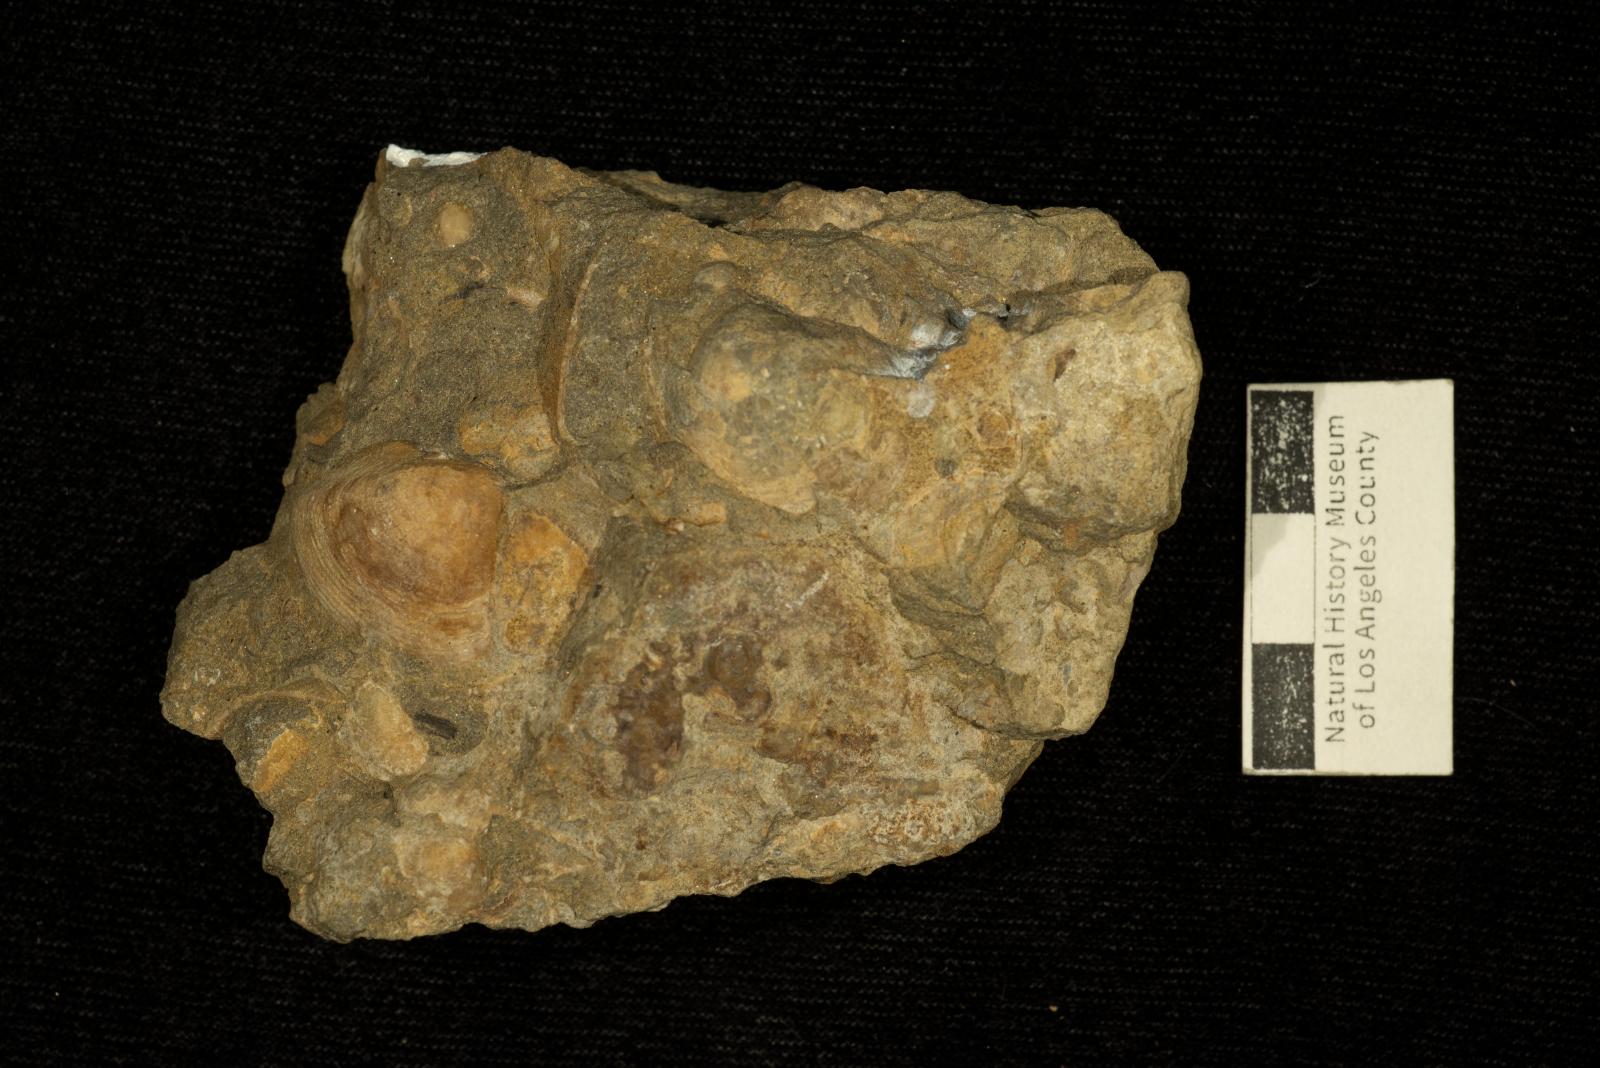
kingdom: Animalia
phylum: Mollusca
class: Bivalvia
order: Carditida
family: Crassatellidae
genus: Crassatella
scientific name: Crassatella gamma
